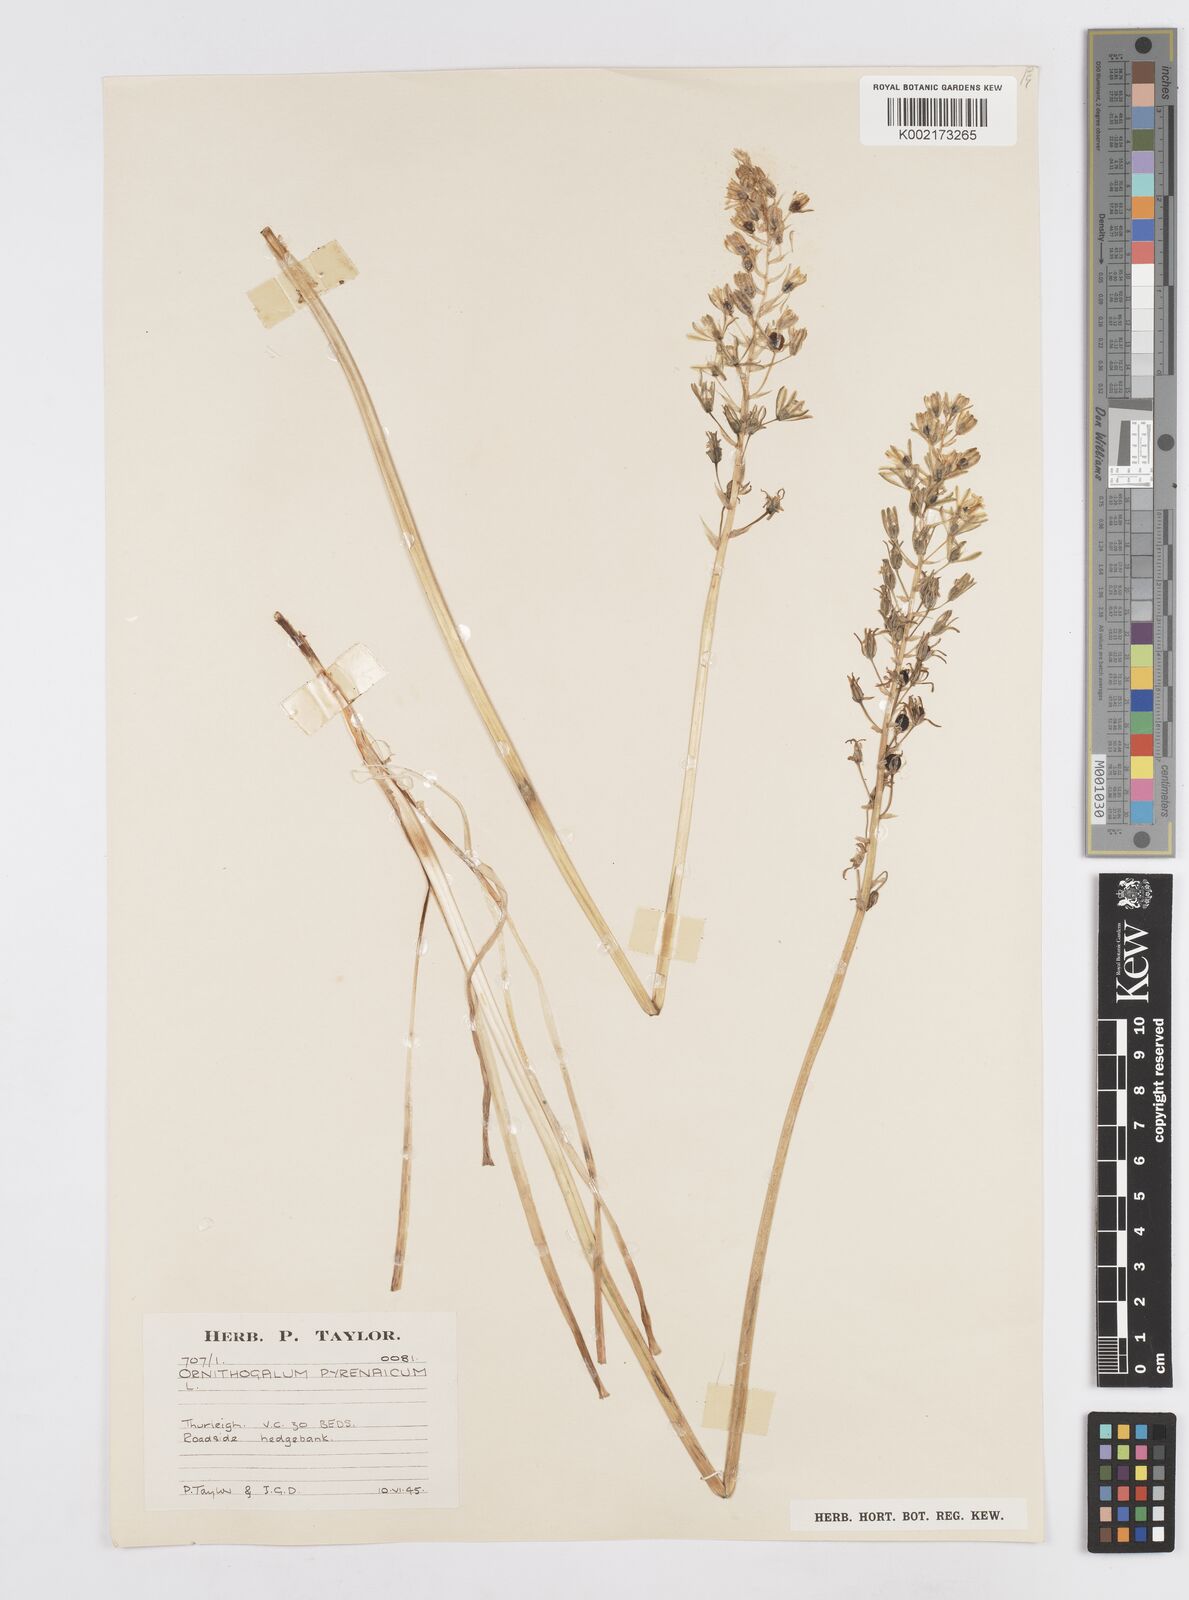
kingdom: Plantae
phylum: Tracheophyta
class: Liliopsida
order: Asparagales
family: Asparagaceae
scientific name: Asparagaceae
